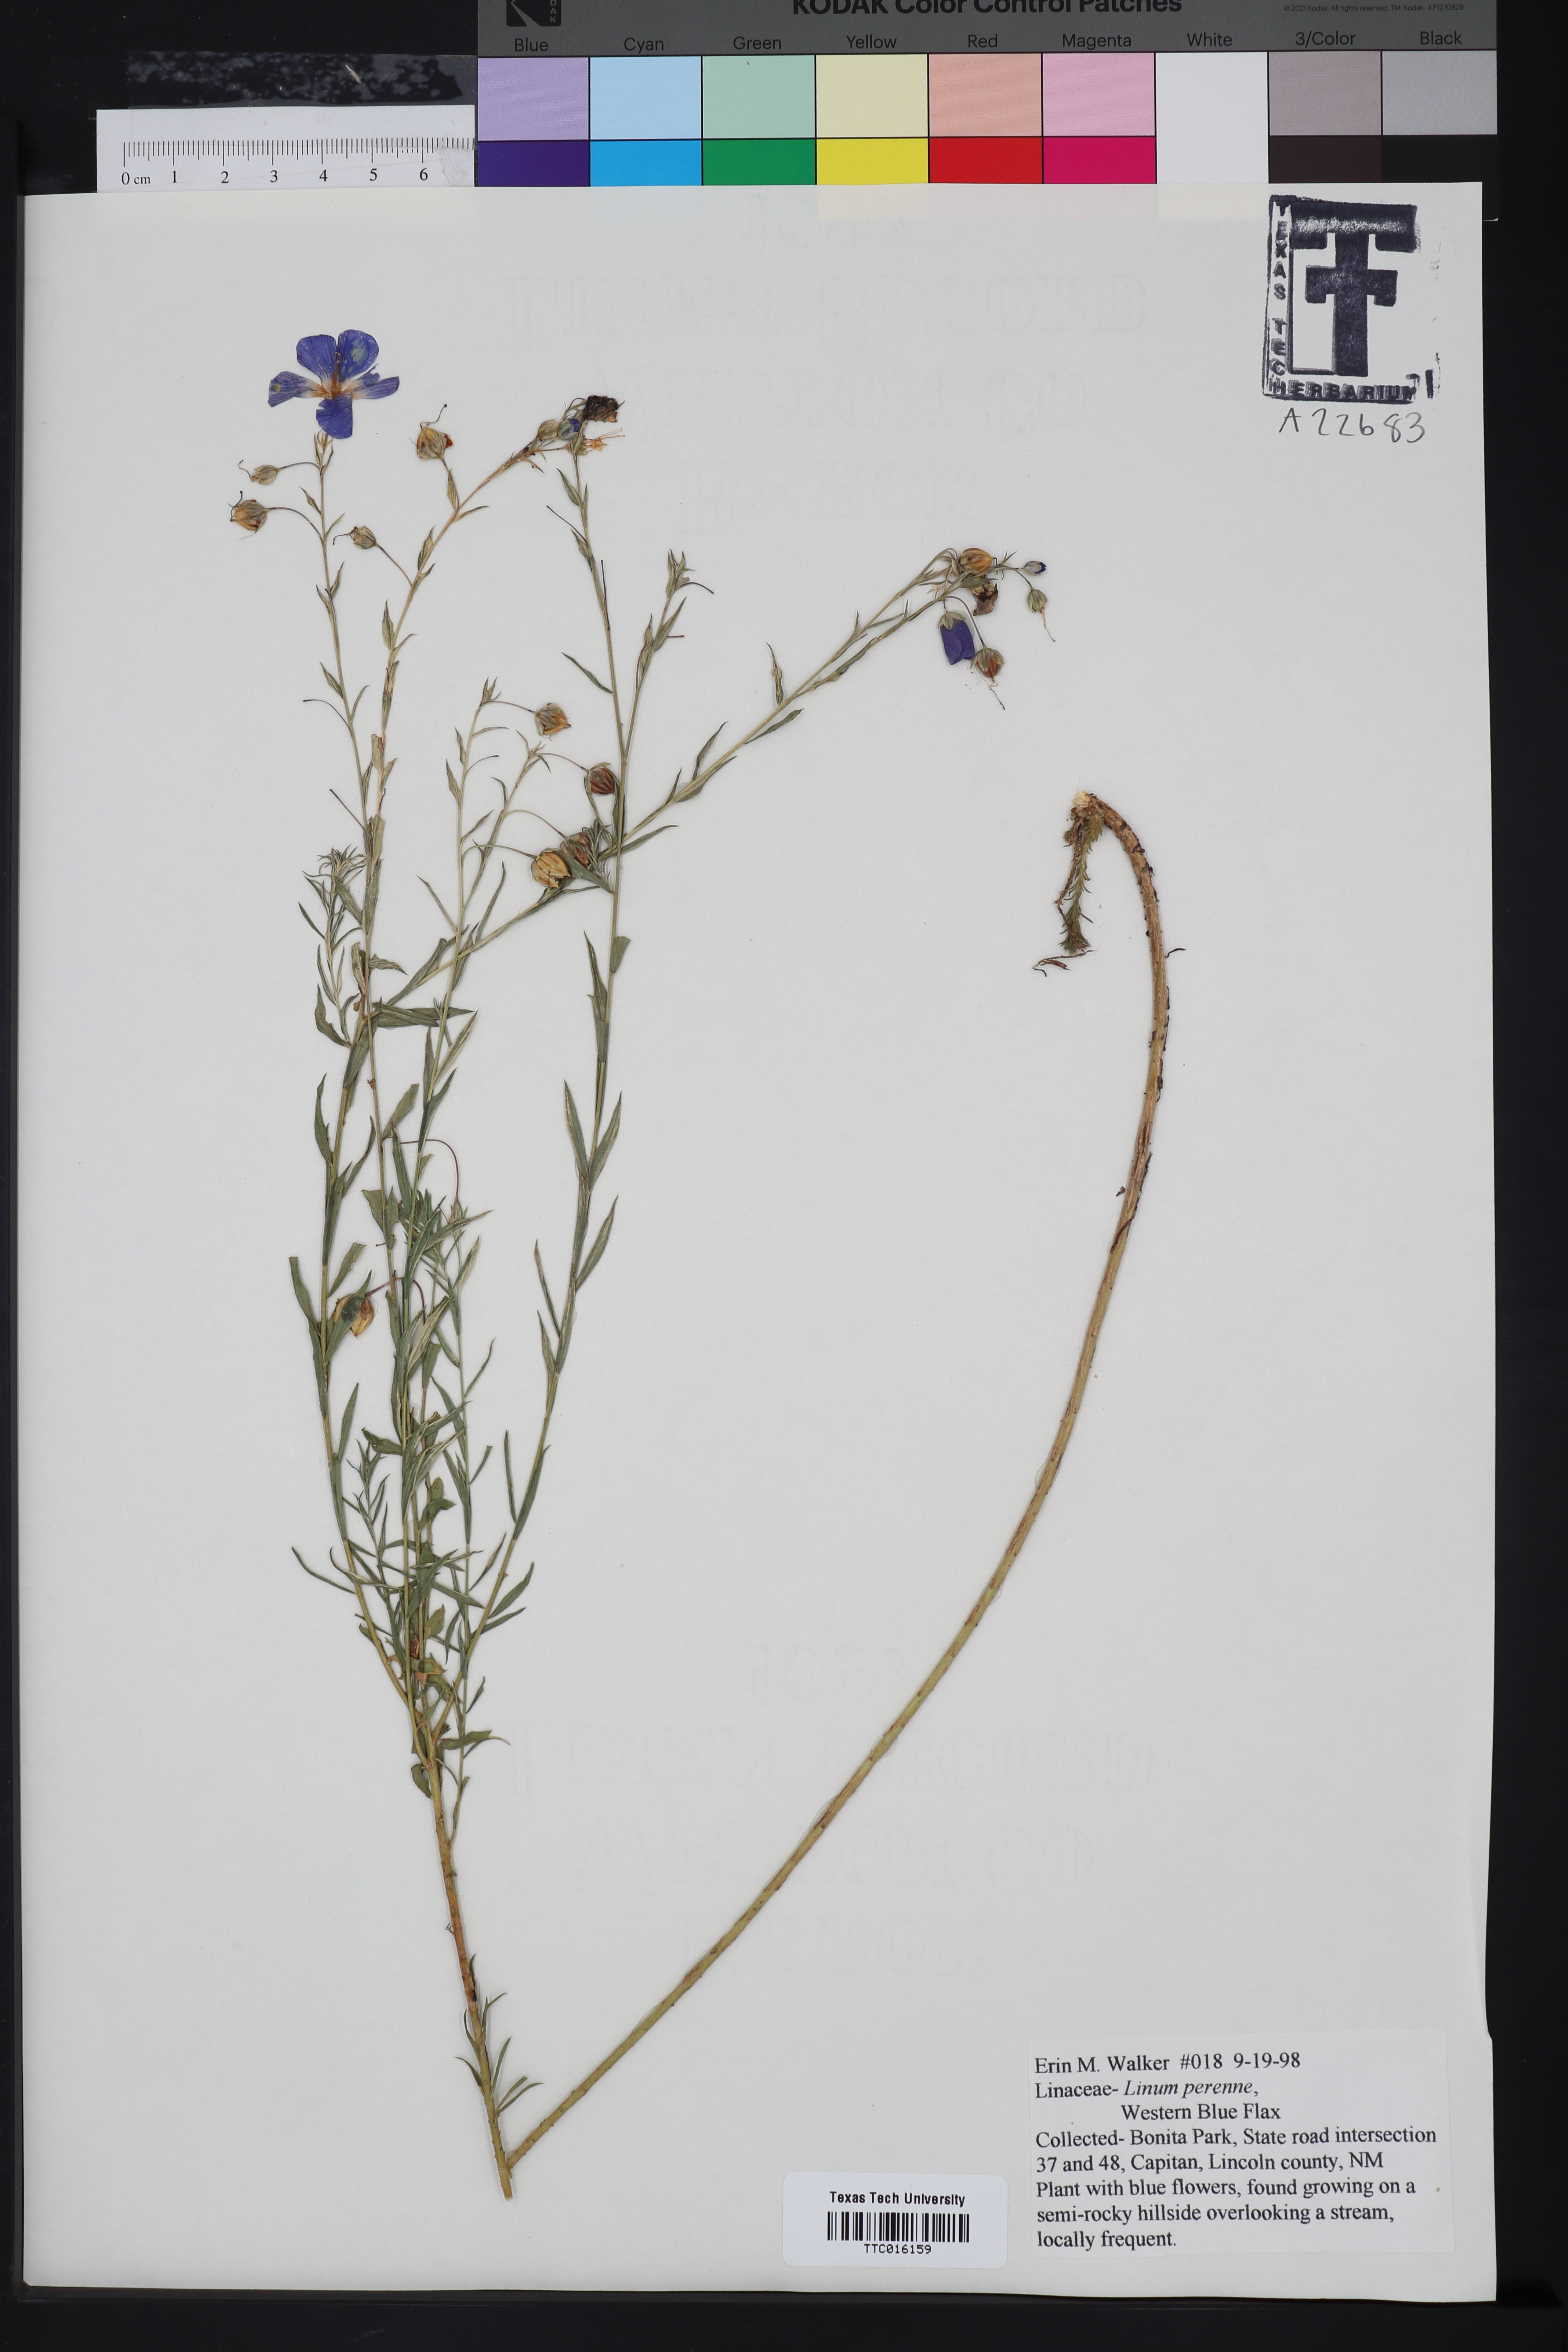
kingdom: Plantae
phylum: Tracheophyta
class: Magnoliopsida
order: Malpighiales
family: Linaceae
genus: Linum
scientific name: Linum perenne
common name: Blue flax
